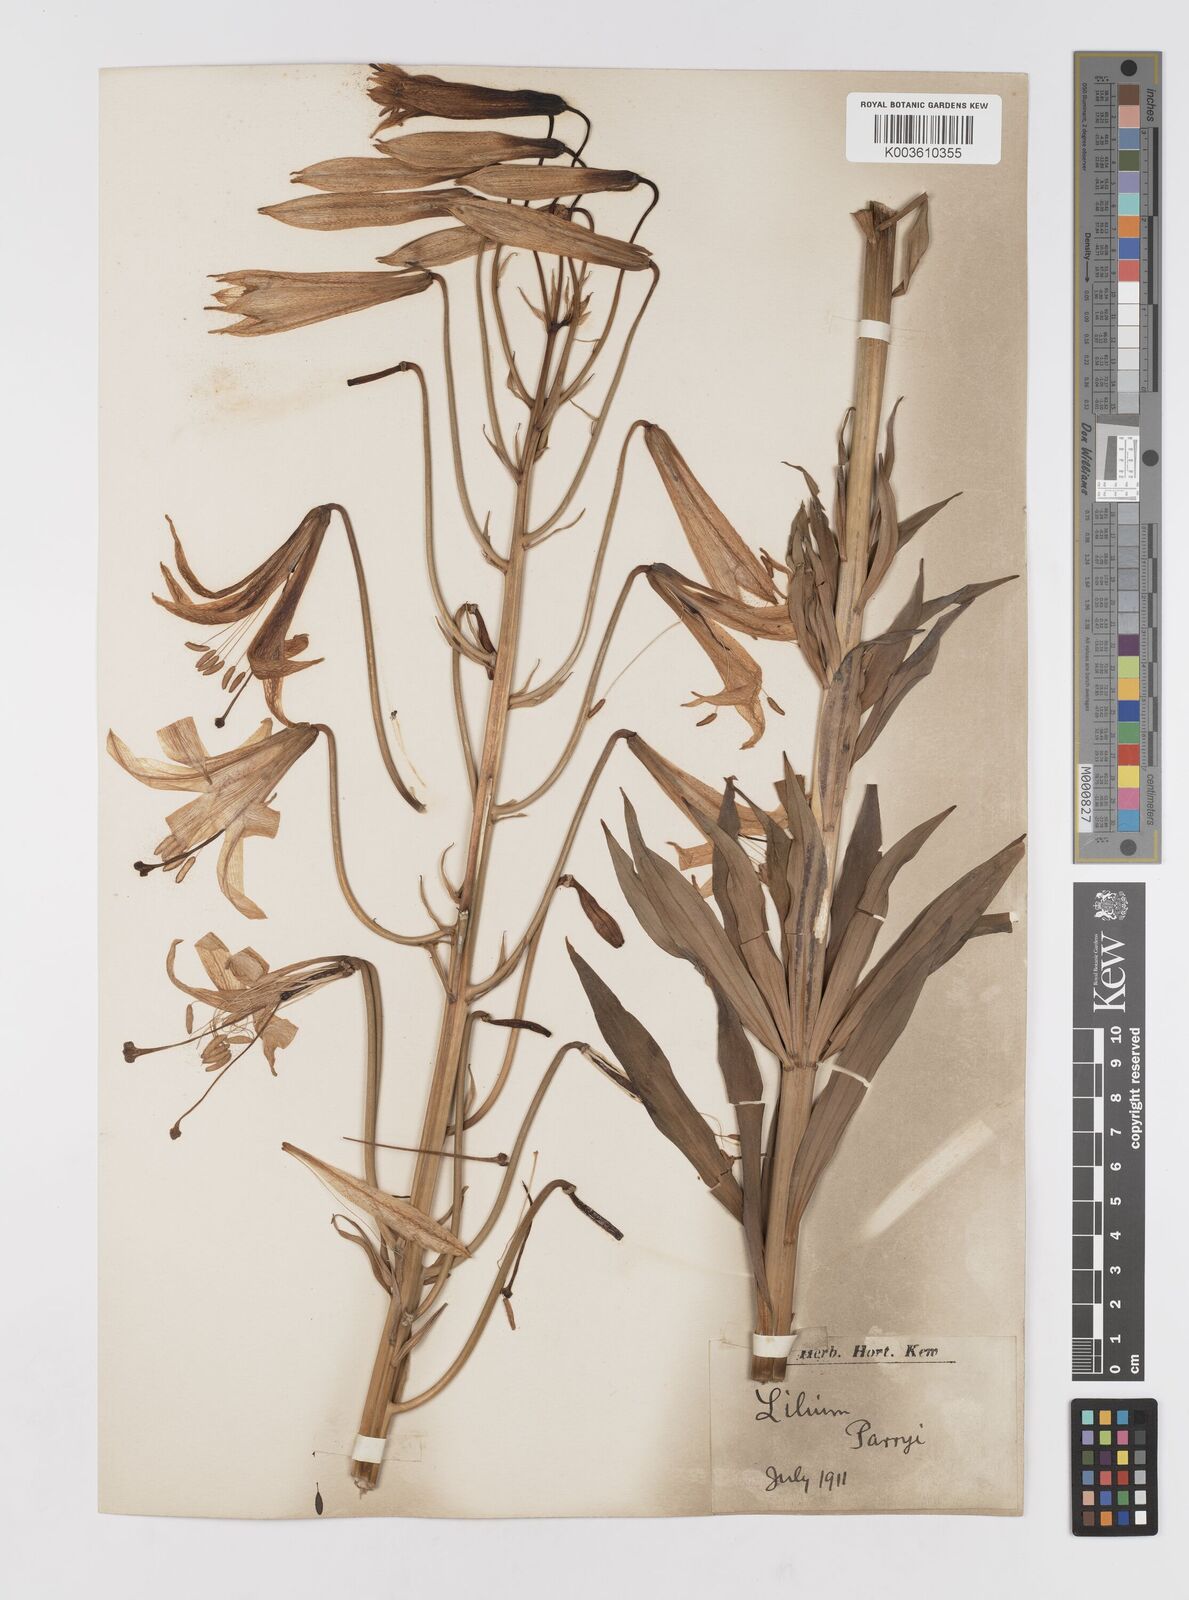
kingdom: Plantae
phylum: Tracheophyta
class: Liliopsida
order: Liliales
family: Liliaceae
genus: Lilium
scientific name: Lilium parryi
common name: Lemon lily
